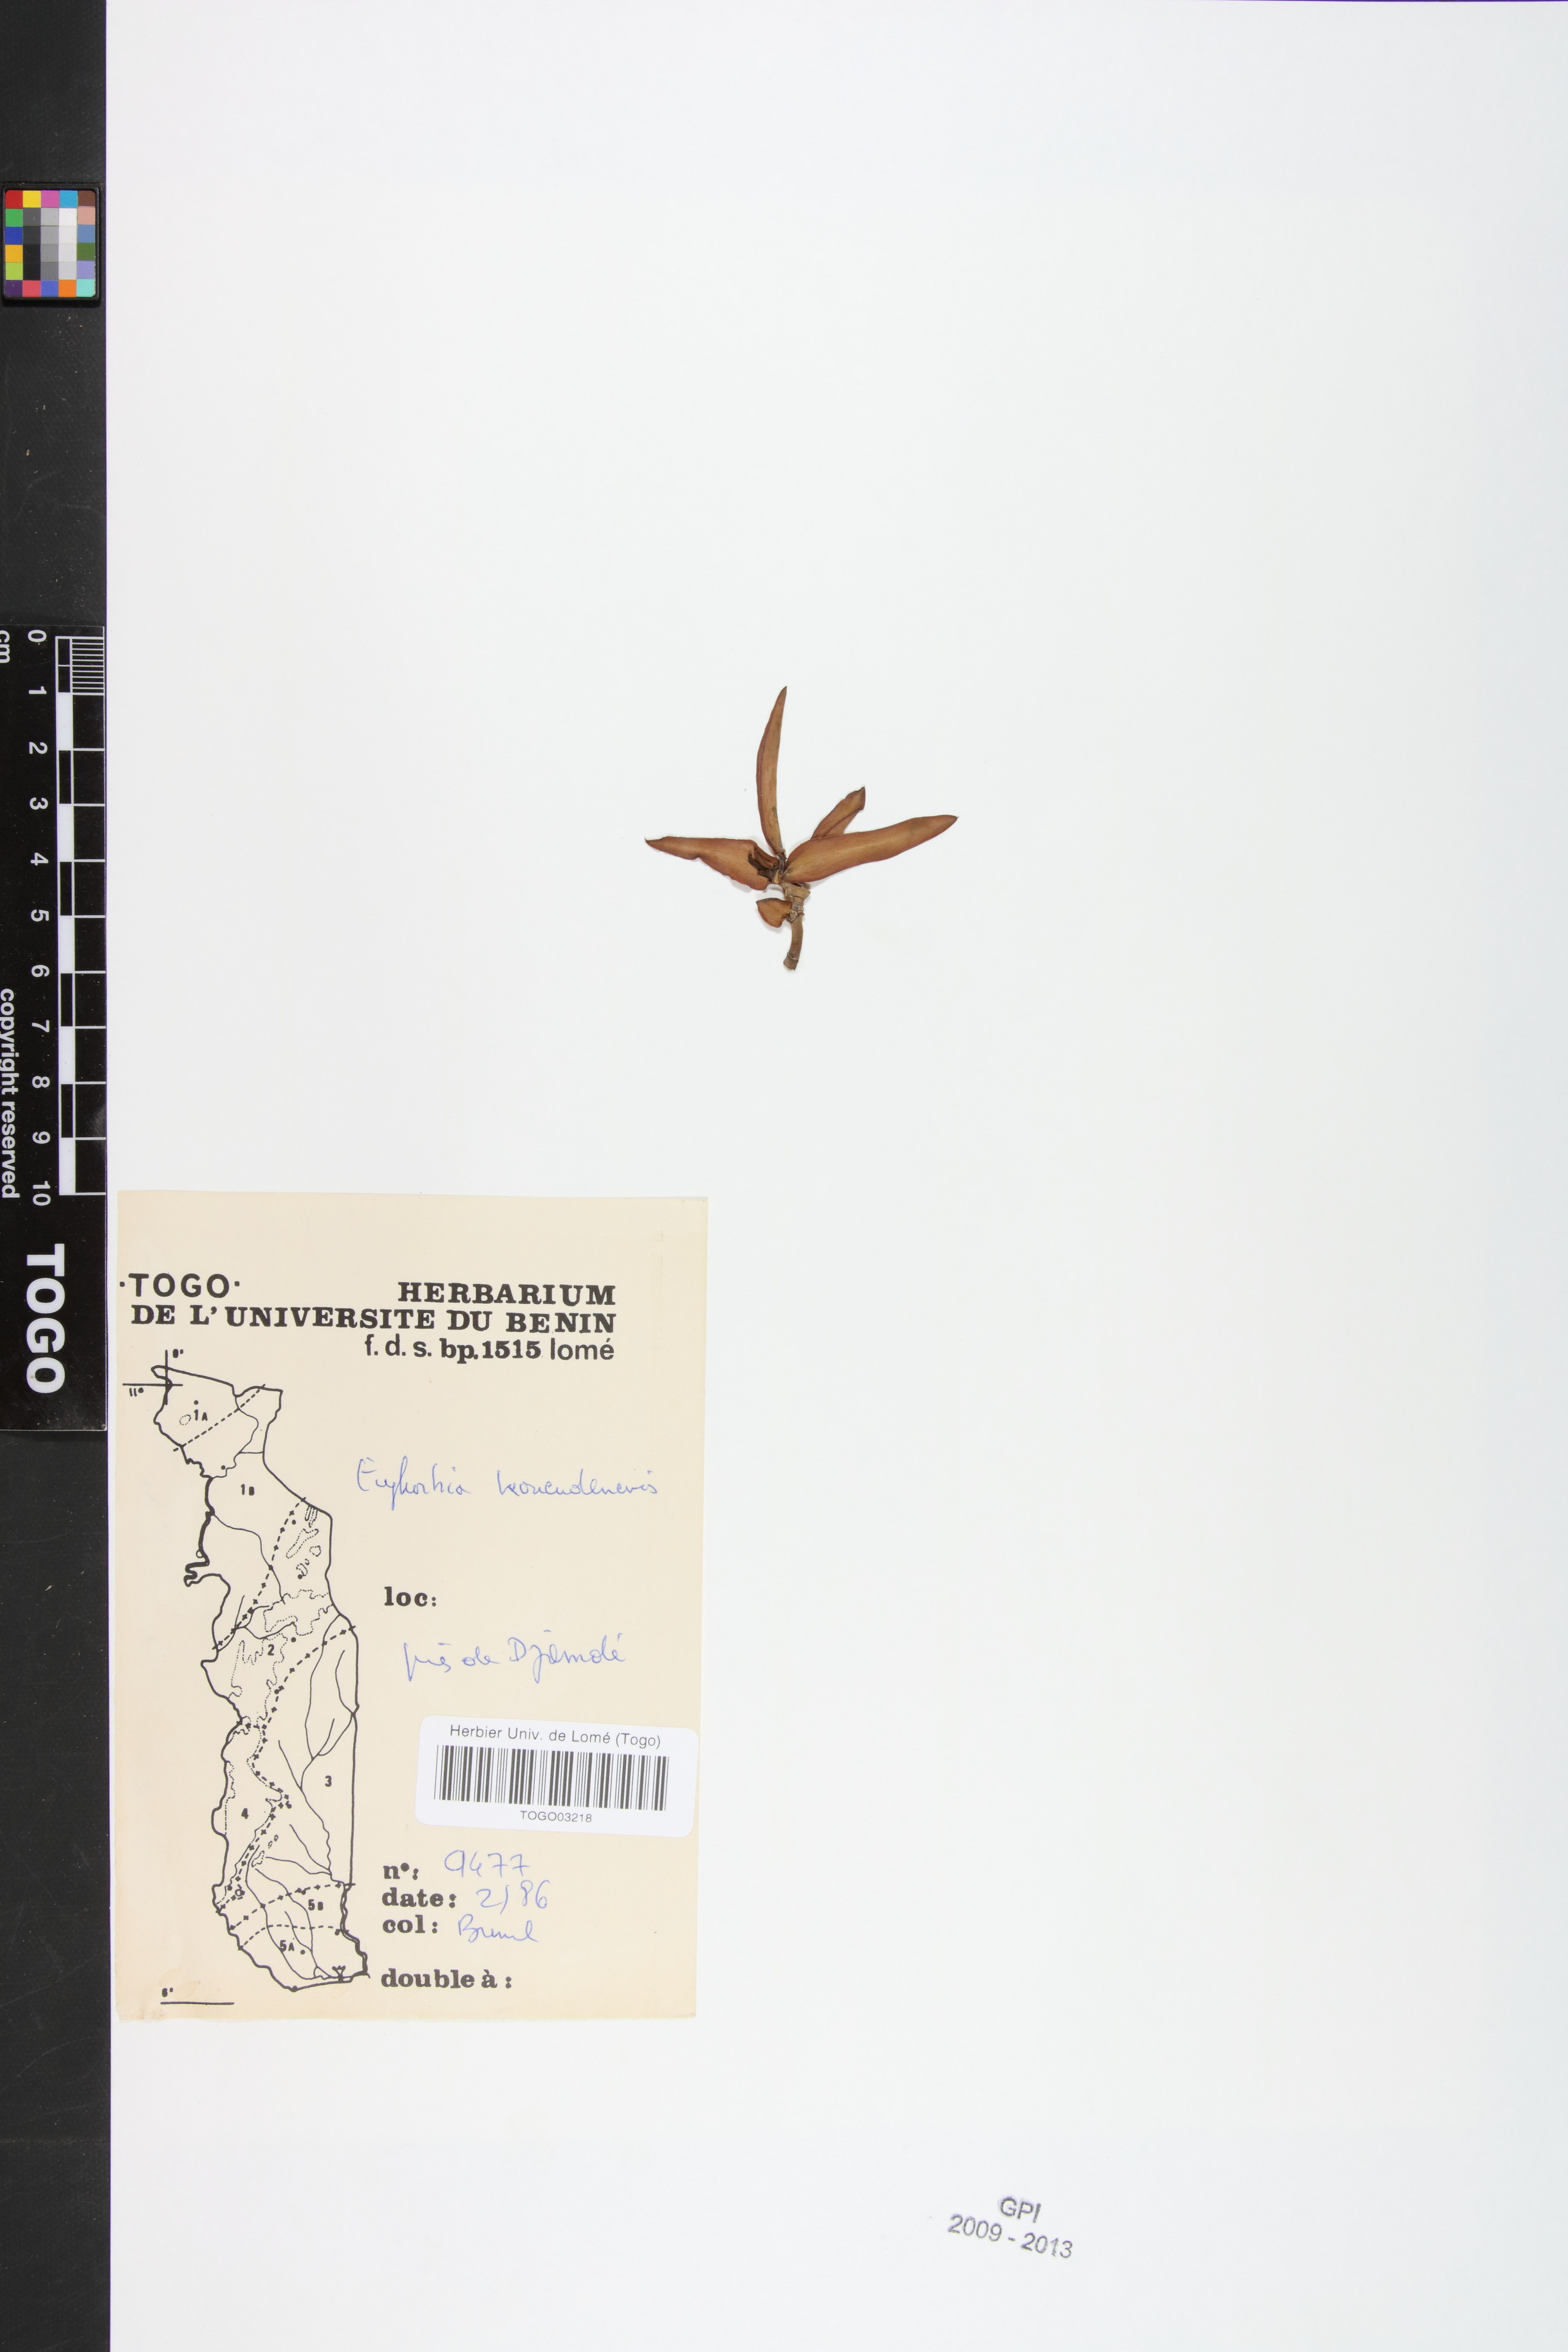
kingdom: Plantae
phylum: Tracheophyta
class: Magnoliopsida
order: Malpighiales
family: Euphorbiaceae
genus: Euphorbia
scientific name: Euphorbia kouandenensis
